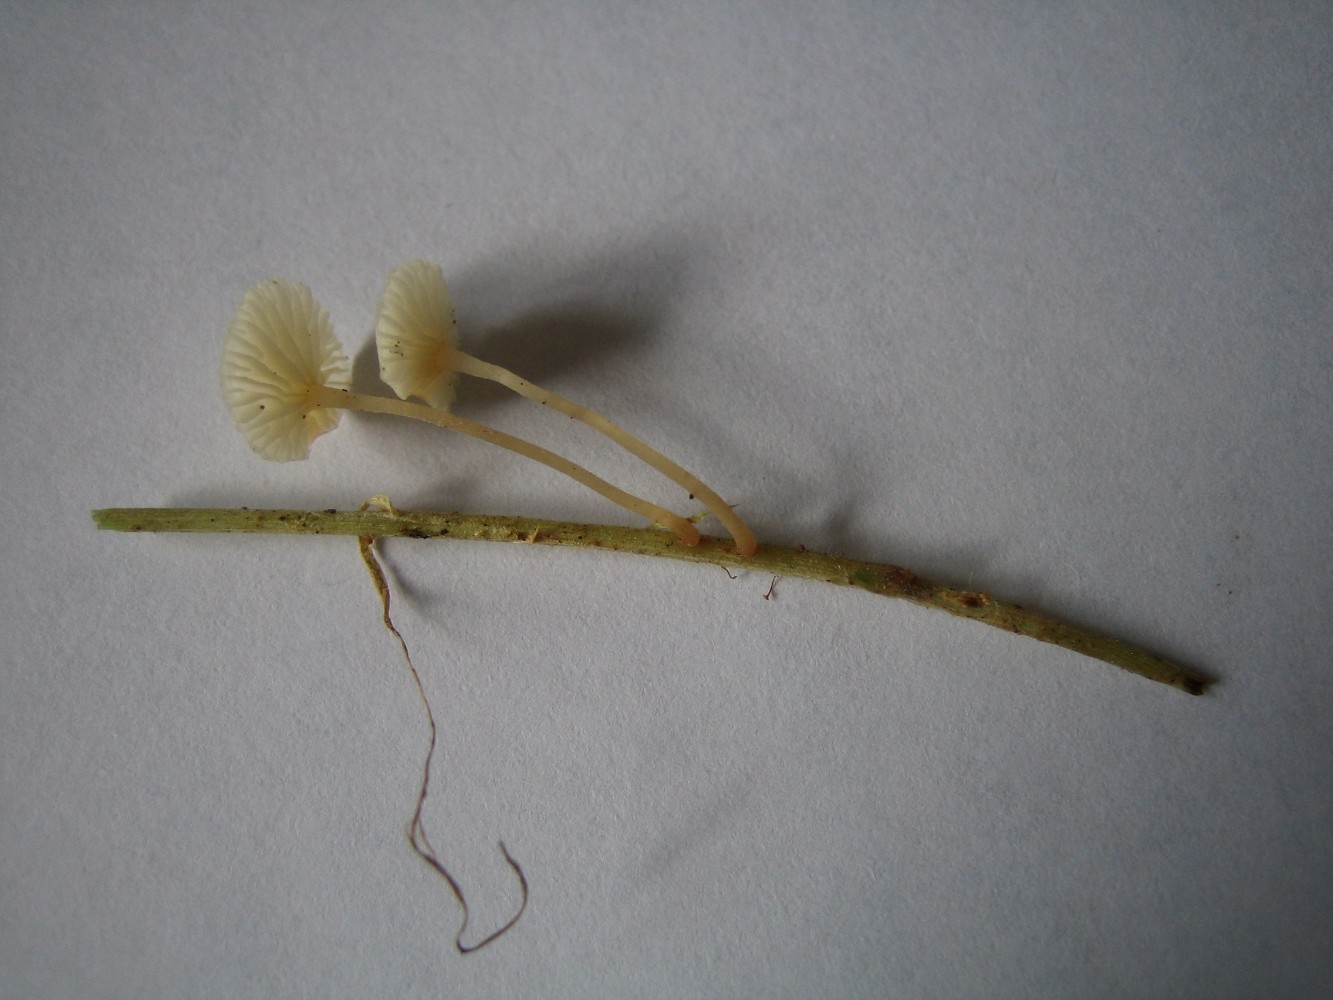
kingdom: Fungi
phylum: Basidiomycota
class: Agaricomycetes
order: Agaricales
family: Omphalotaceae
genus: Collybiopsis
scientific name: Collybiopsis vaillantii
